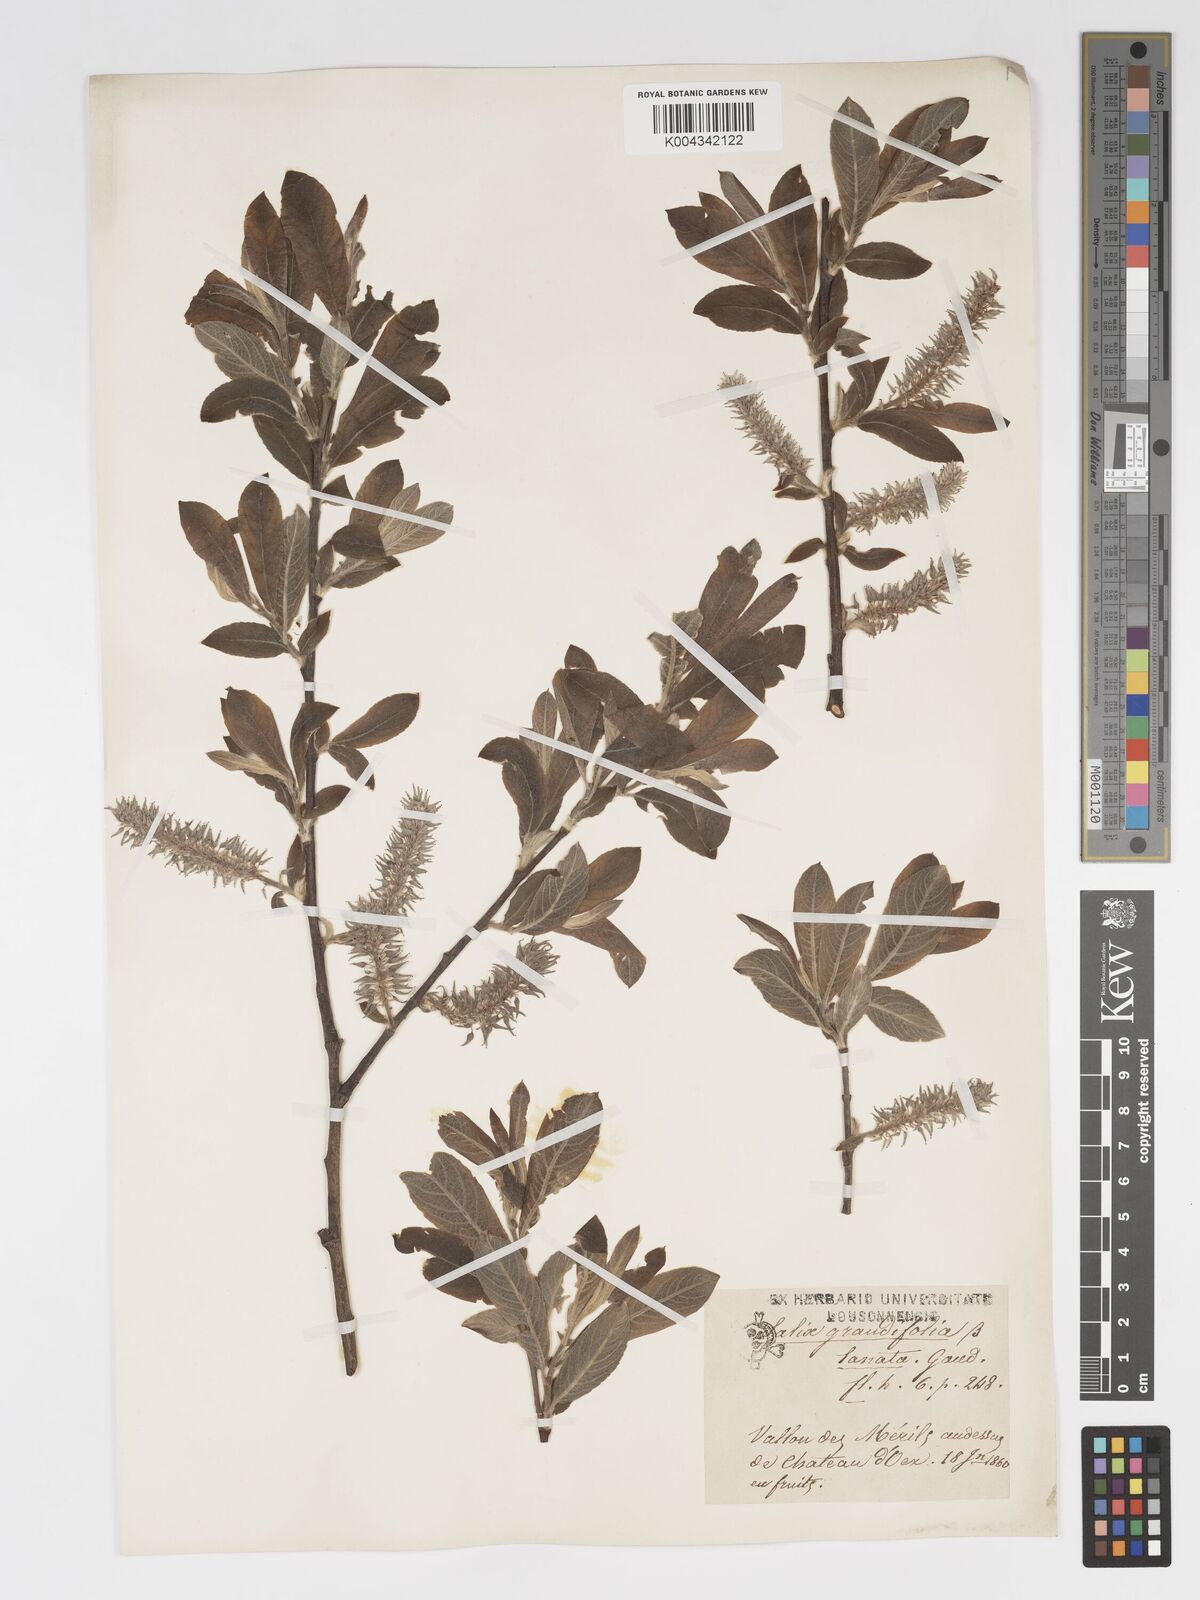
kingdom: Plantae
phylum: Tracheophyta
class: Magnoliopsida
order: Malpighiales
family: Salicaceae
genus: Salix
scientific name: Salix laggeri
